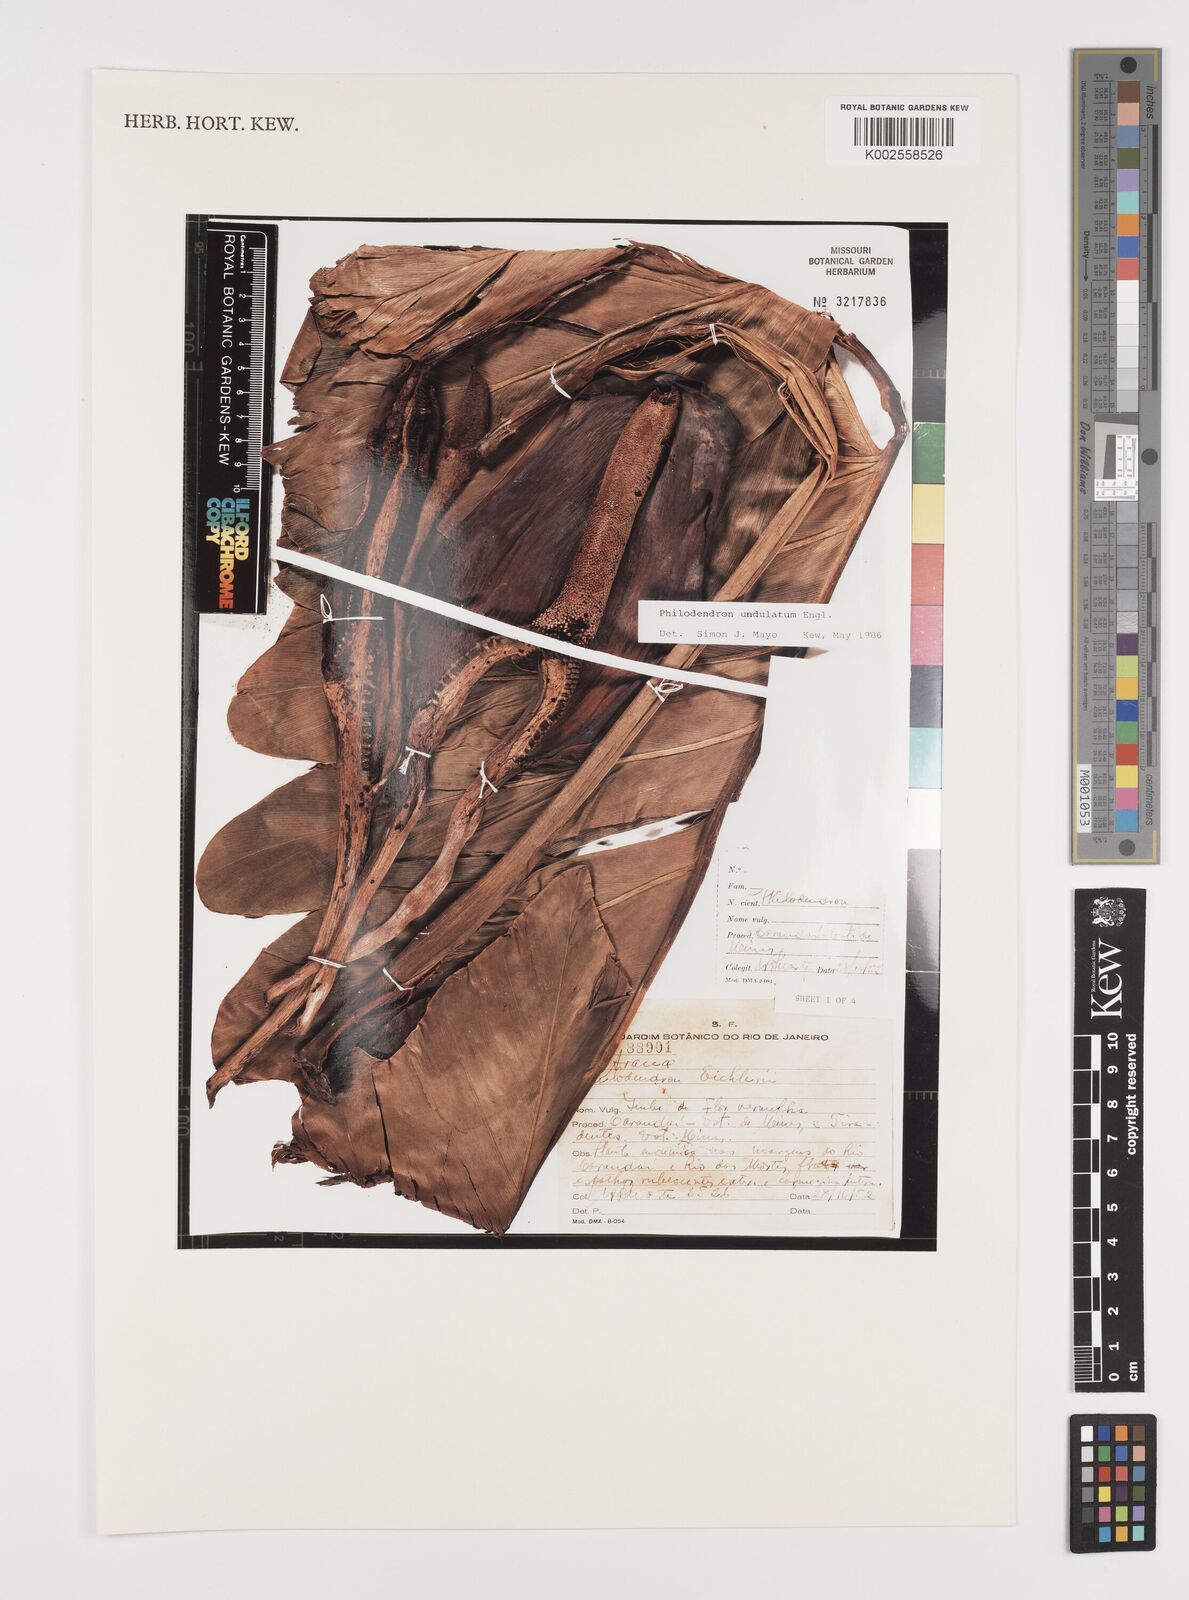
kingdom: Plantae
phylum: Tracheophyta
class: Liliopsida
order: Alismatales
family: Araceae
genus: Thaumatophyllum
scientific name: Thaumatophyllum undulatum
